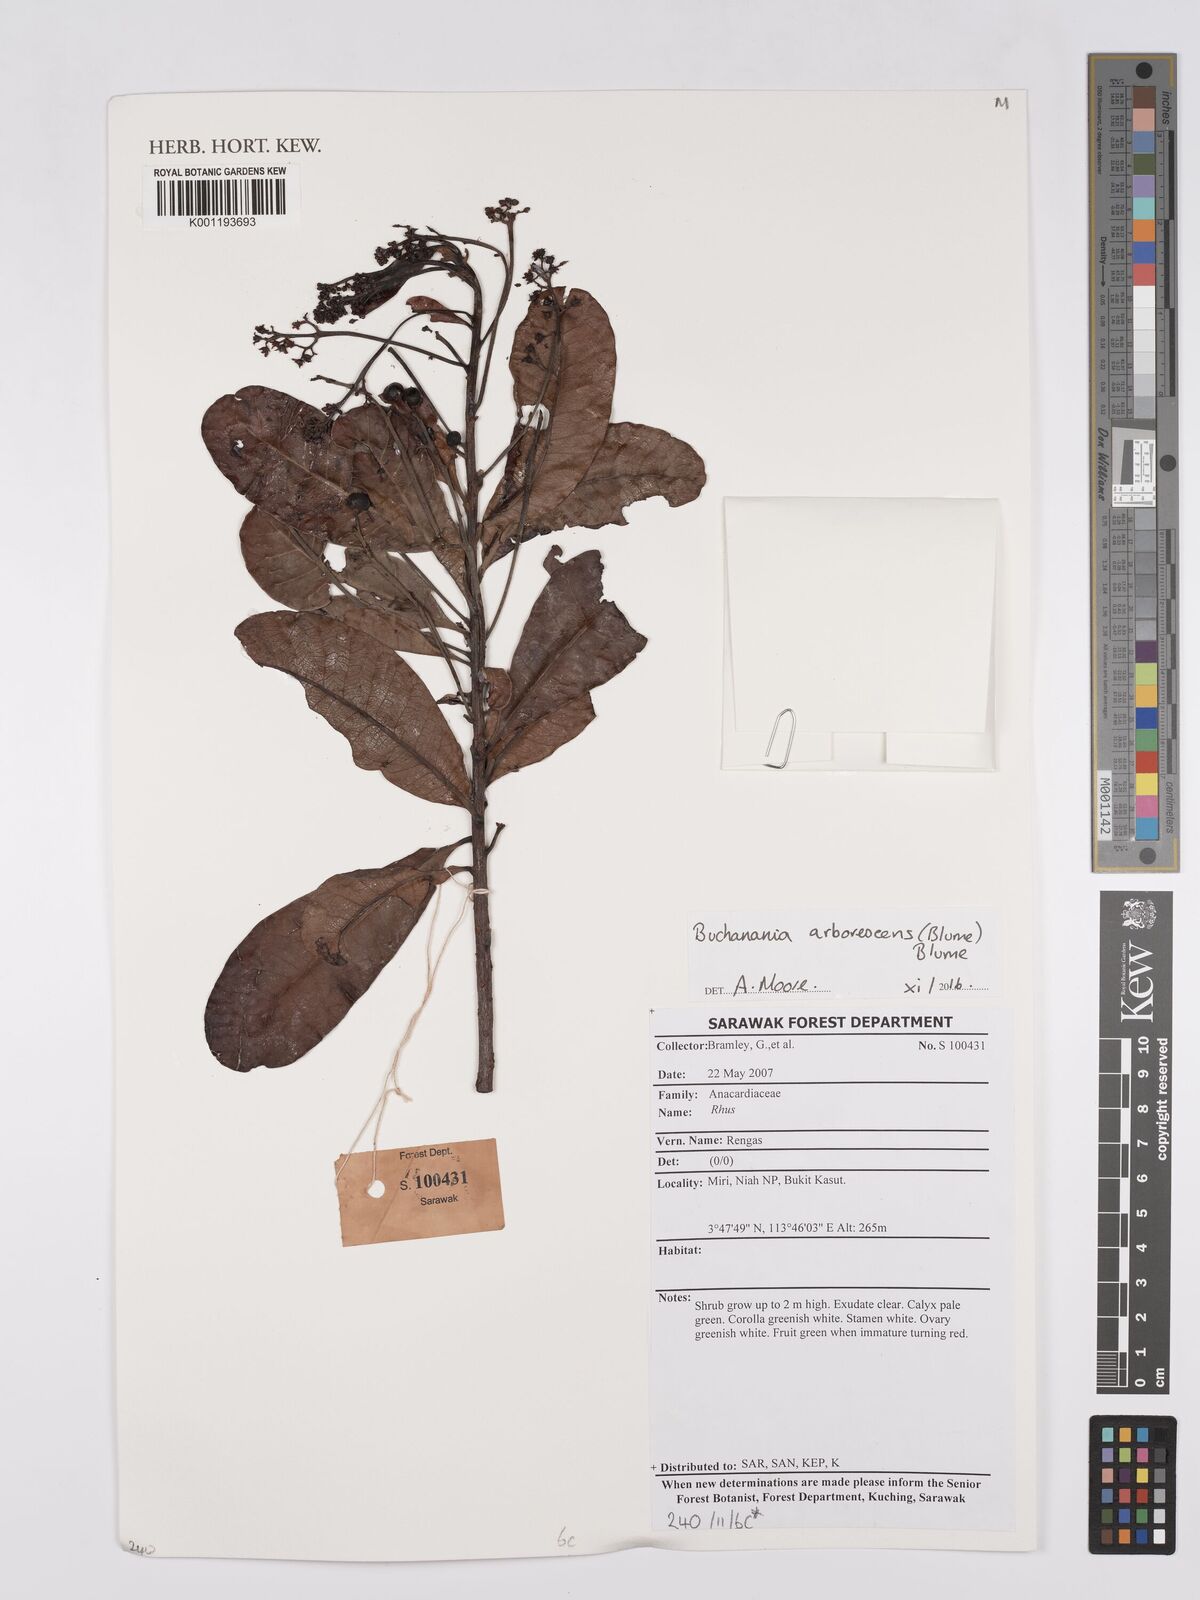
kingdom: Plantae
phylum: Tracheophyta
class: Magnoliopsida
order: Sapindales
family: Anacardiaceae
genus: Buchanania
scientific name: Buchanania arborescens
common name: Sparrow’s mango
